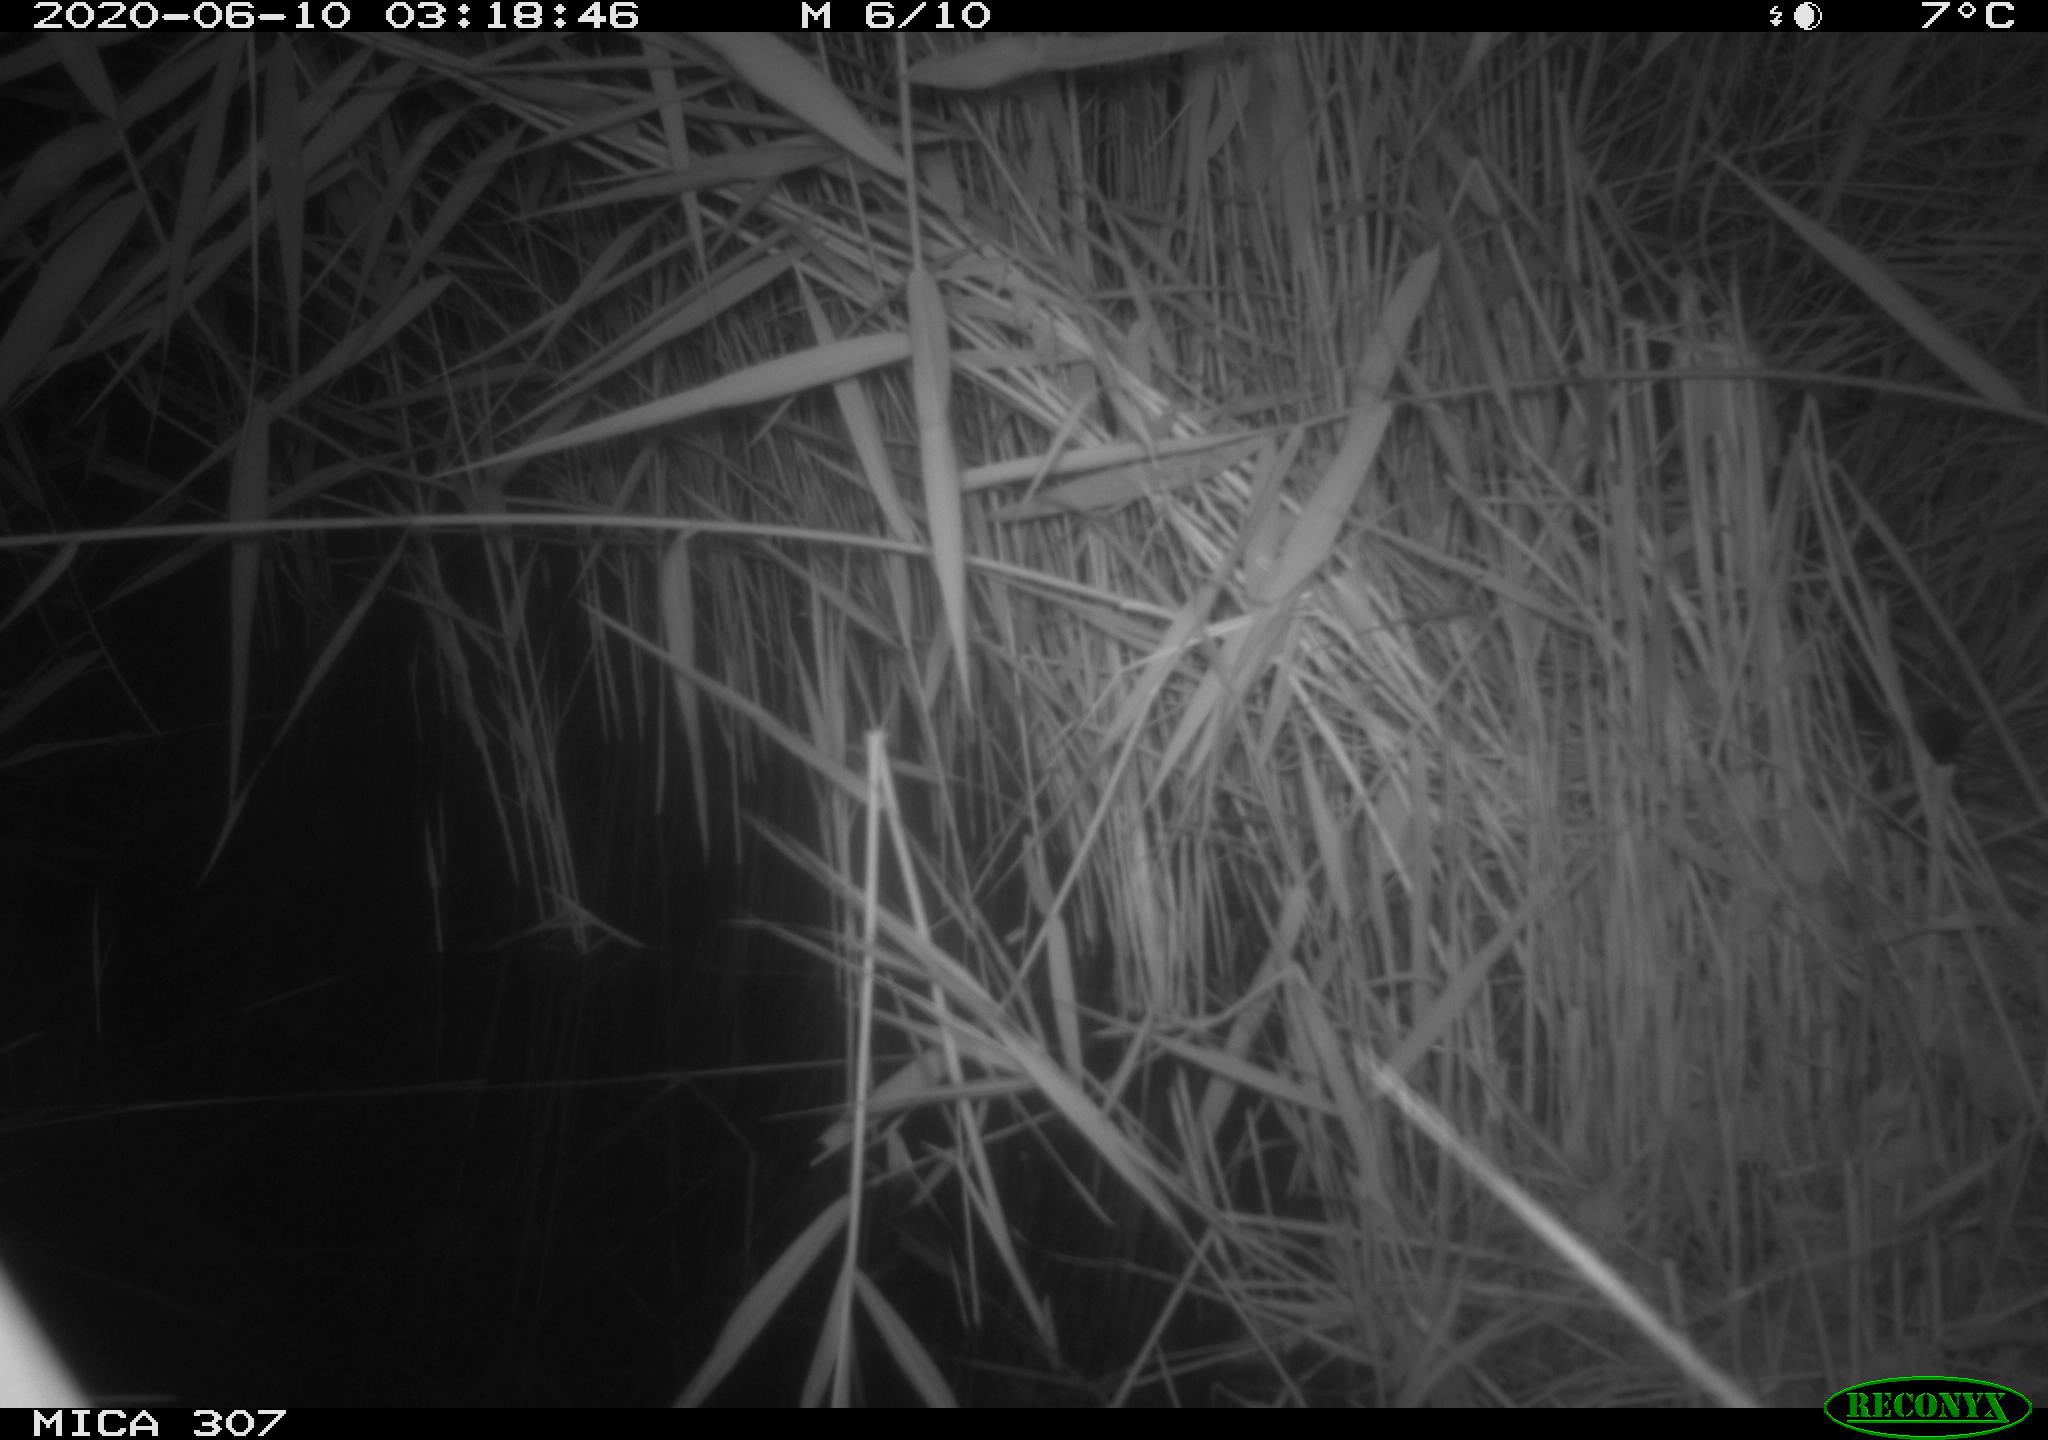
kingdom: Animalia
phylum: Chordata
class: Mammalia
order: Rodentia
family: Muridae
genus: Rattus
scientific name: Rattus norvegicus
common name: Brown rat
